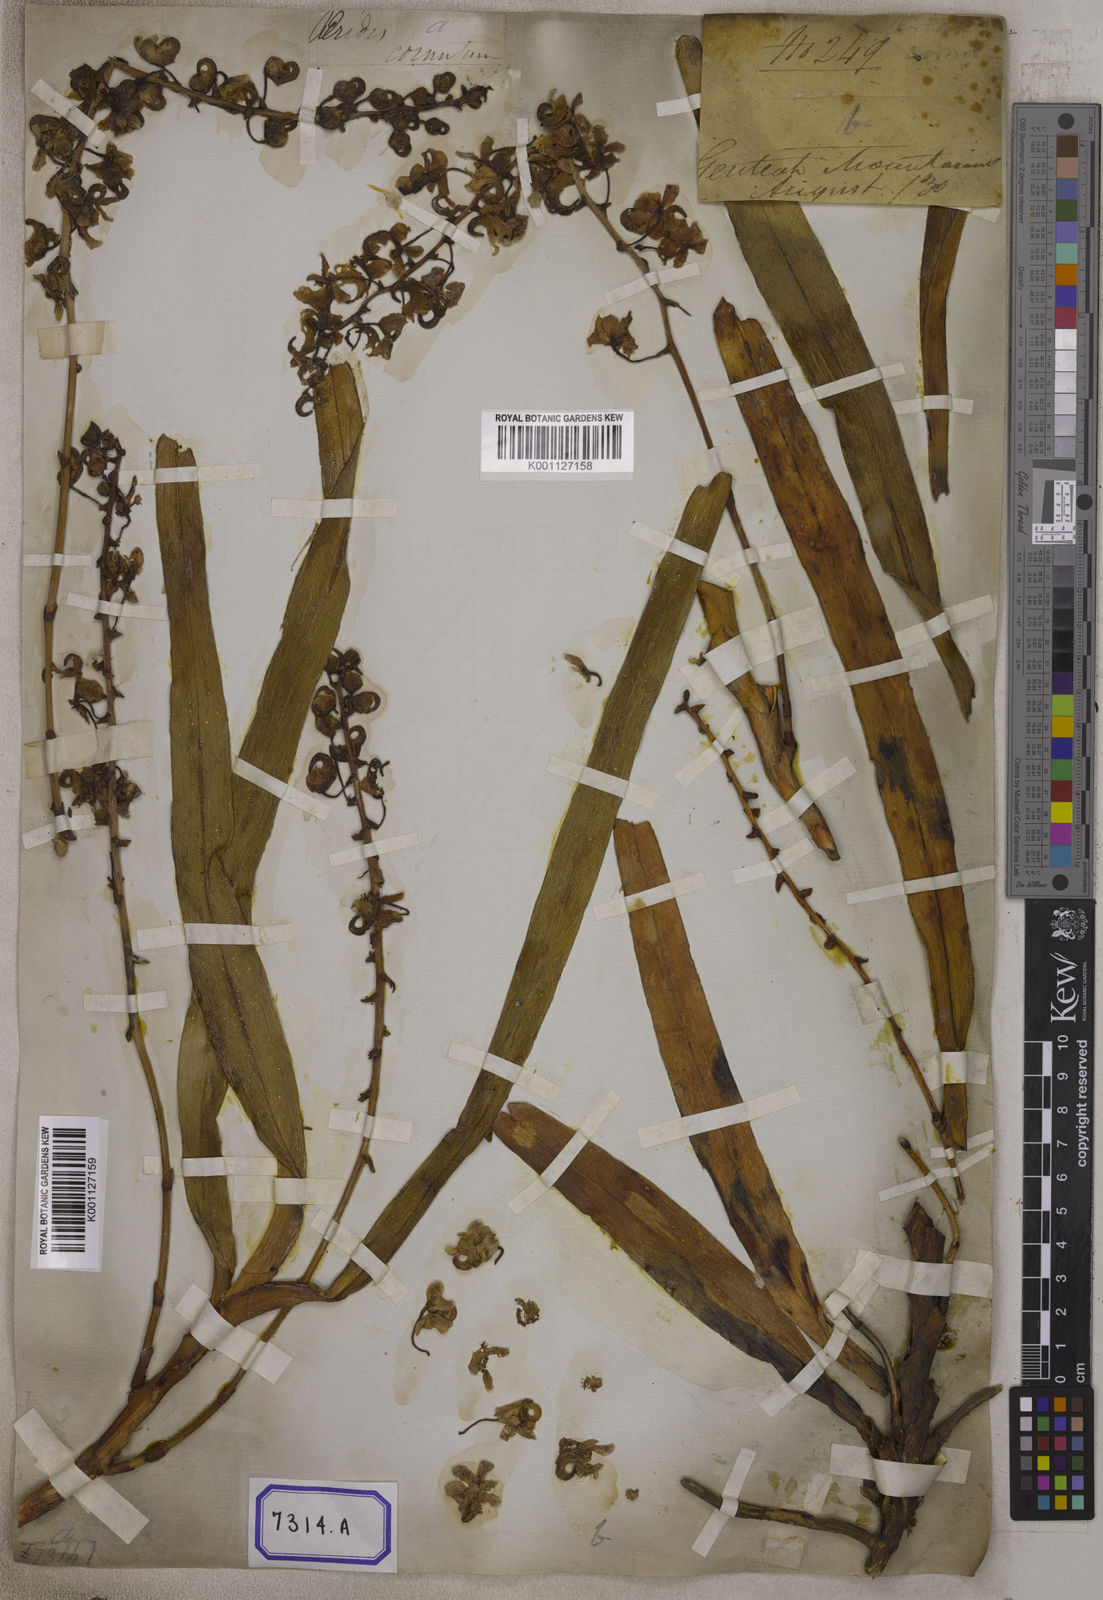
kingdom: Plantae
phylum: Tracheophyta
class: Liliopsida
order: Asparagales
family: Orchidaceae
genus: Aerides
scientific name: Aerides odorata
